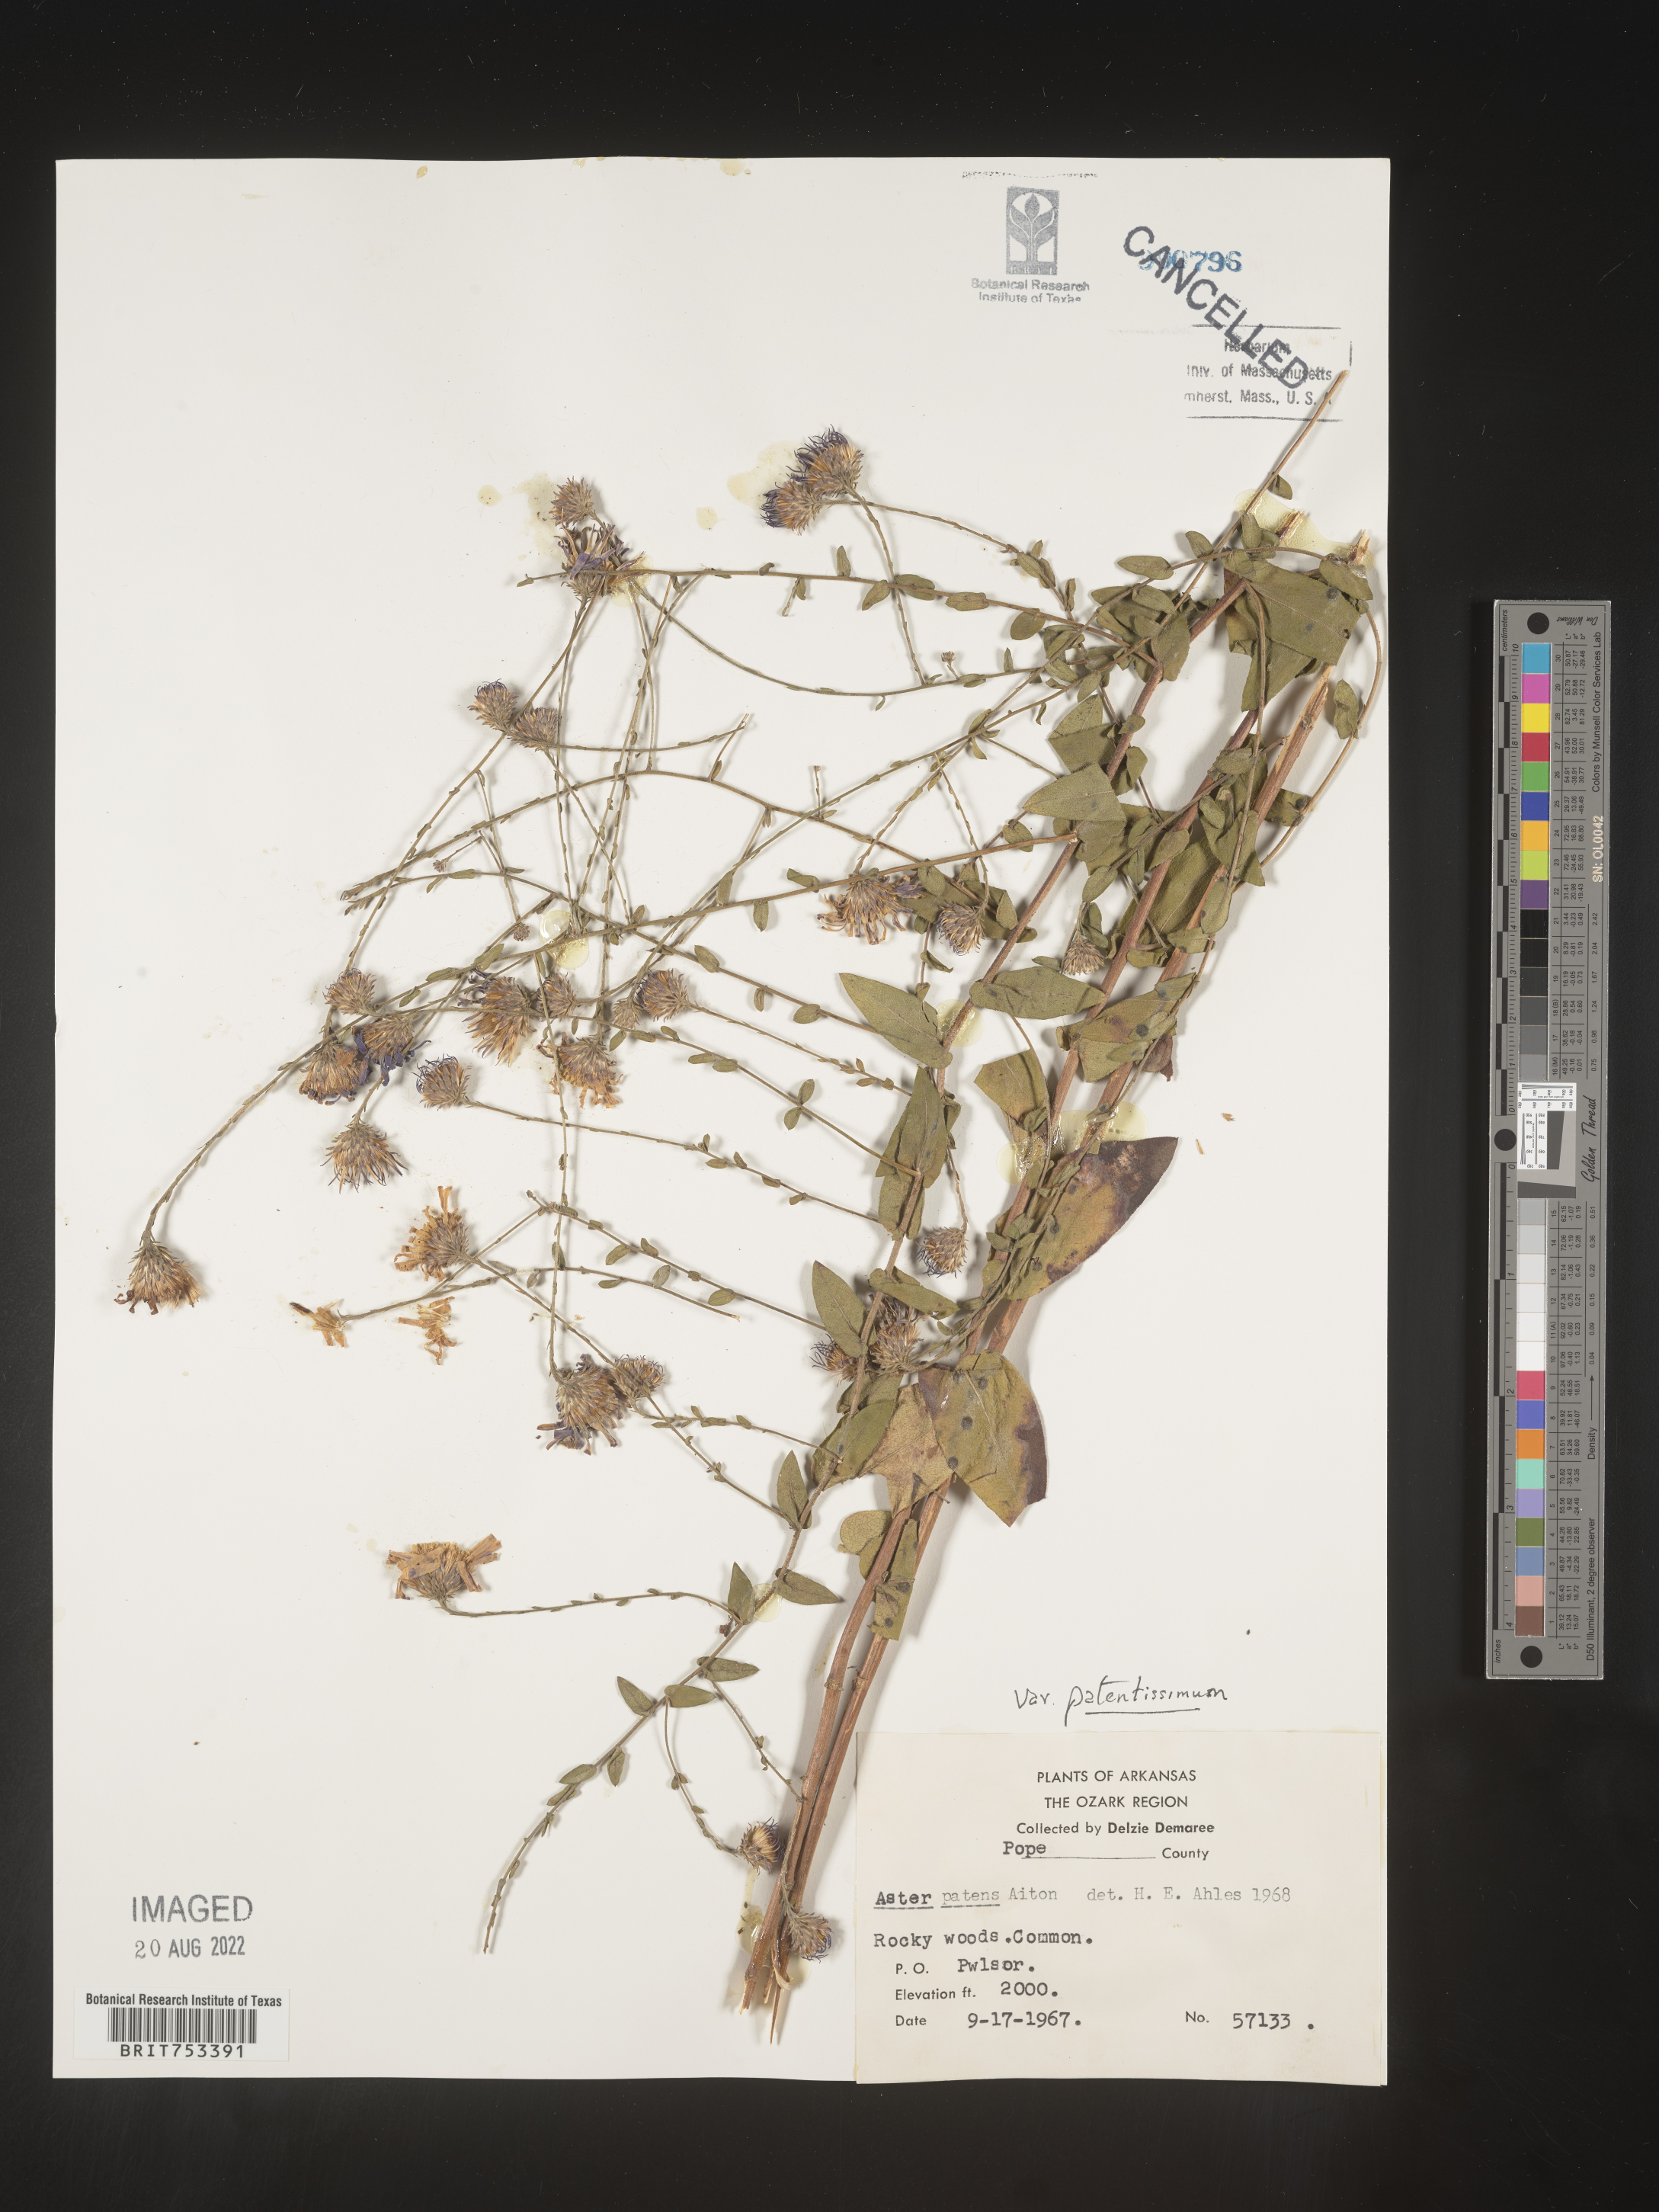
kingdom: Plantae
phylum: Tracheophyta
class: Magnoliopsida
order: Asterales
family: Asteraceae
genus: Symphyotrichum
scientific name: Symphyotrichum patens
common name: Late purple aster
